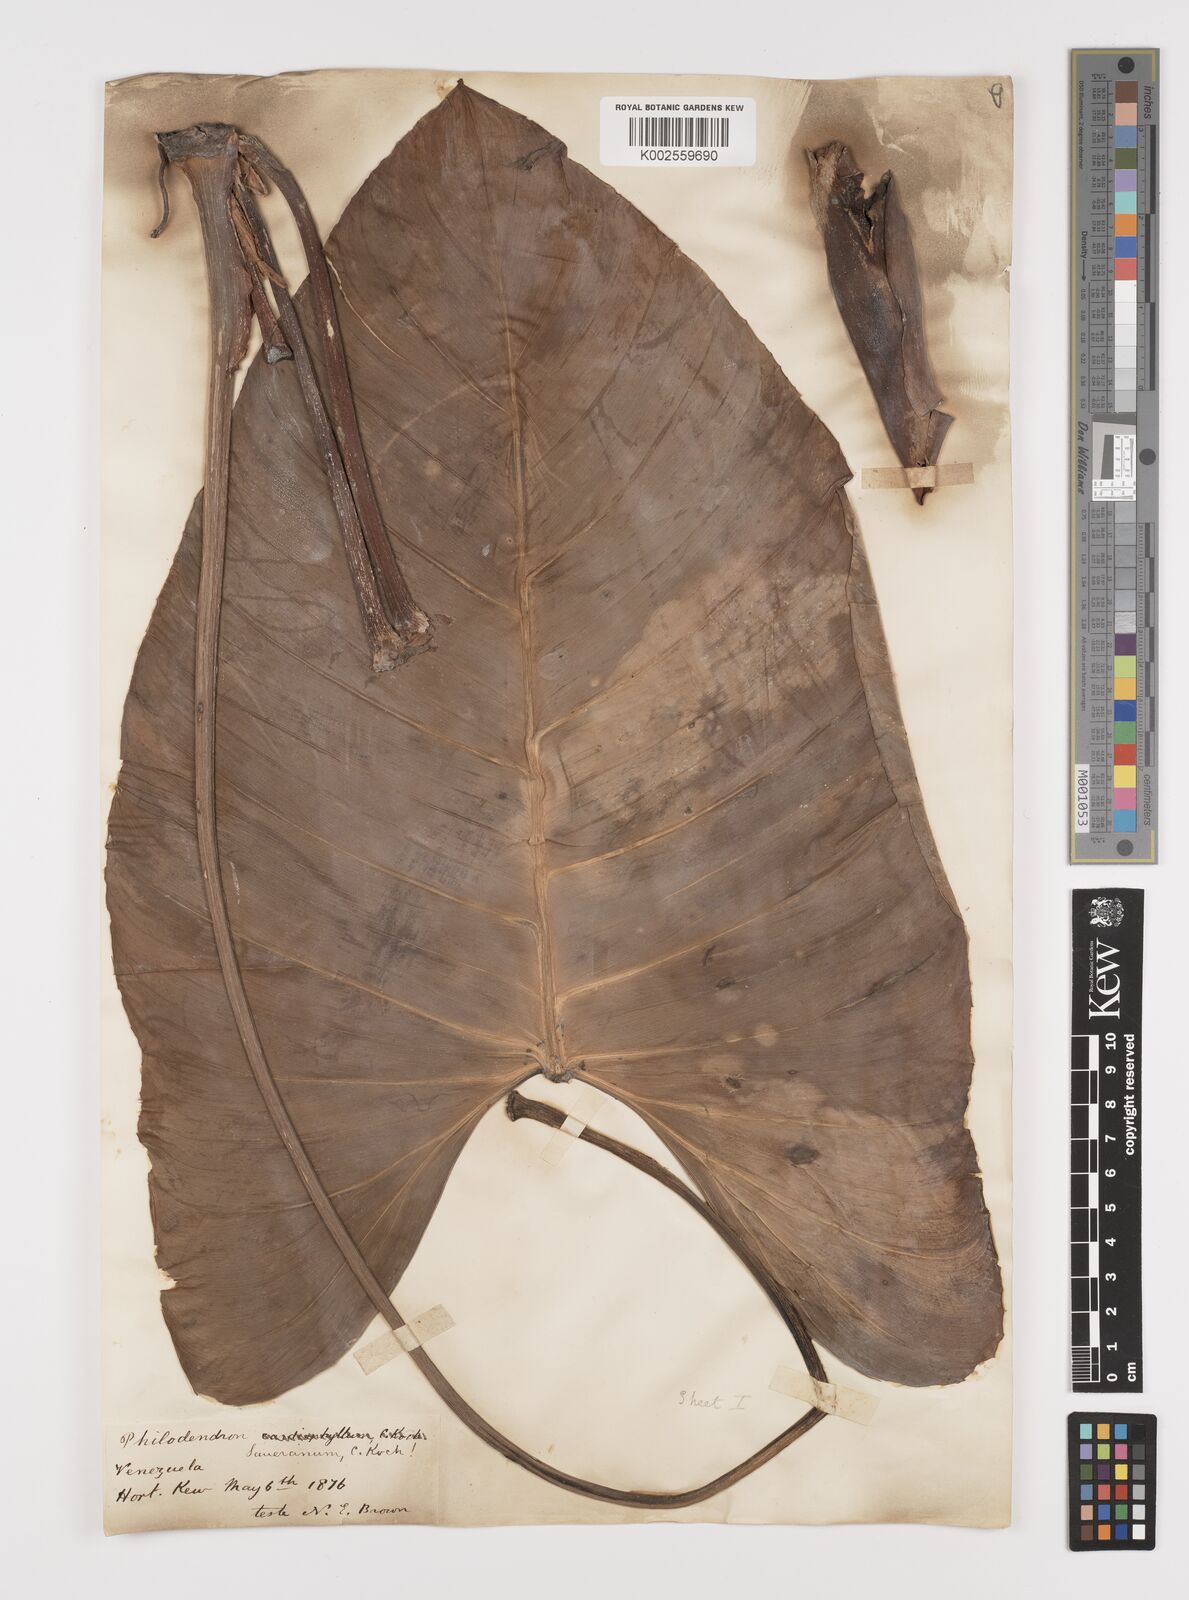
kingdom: Plantae
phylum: Tracheophyta
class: Liliopsida
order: Alismatales
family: Araceae
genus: Philodendron
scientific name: Philodendron eximium
